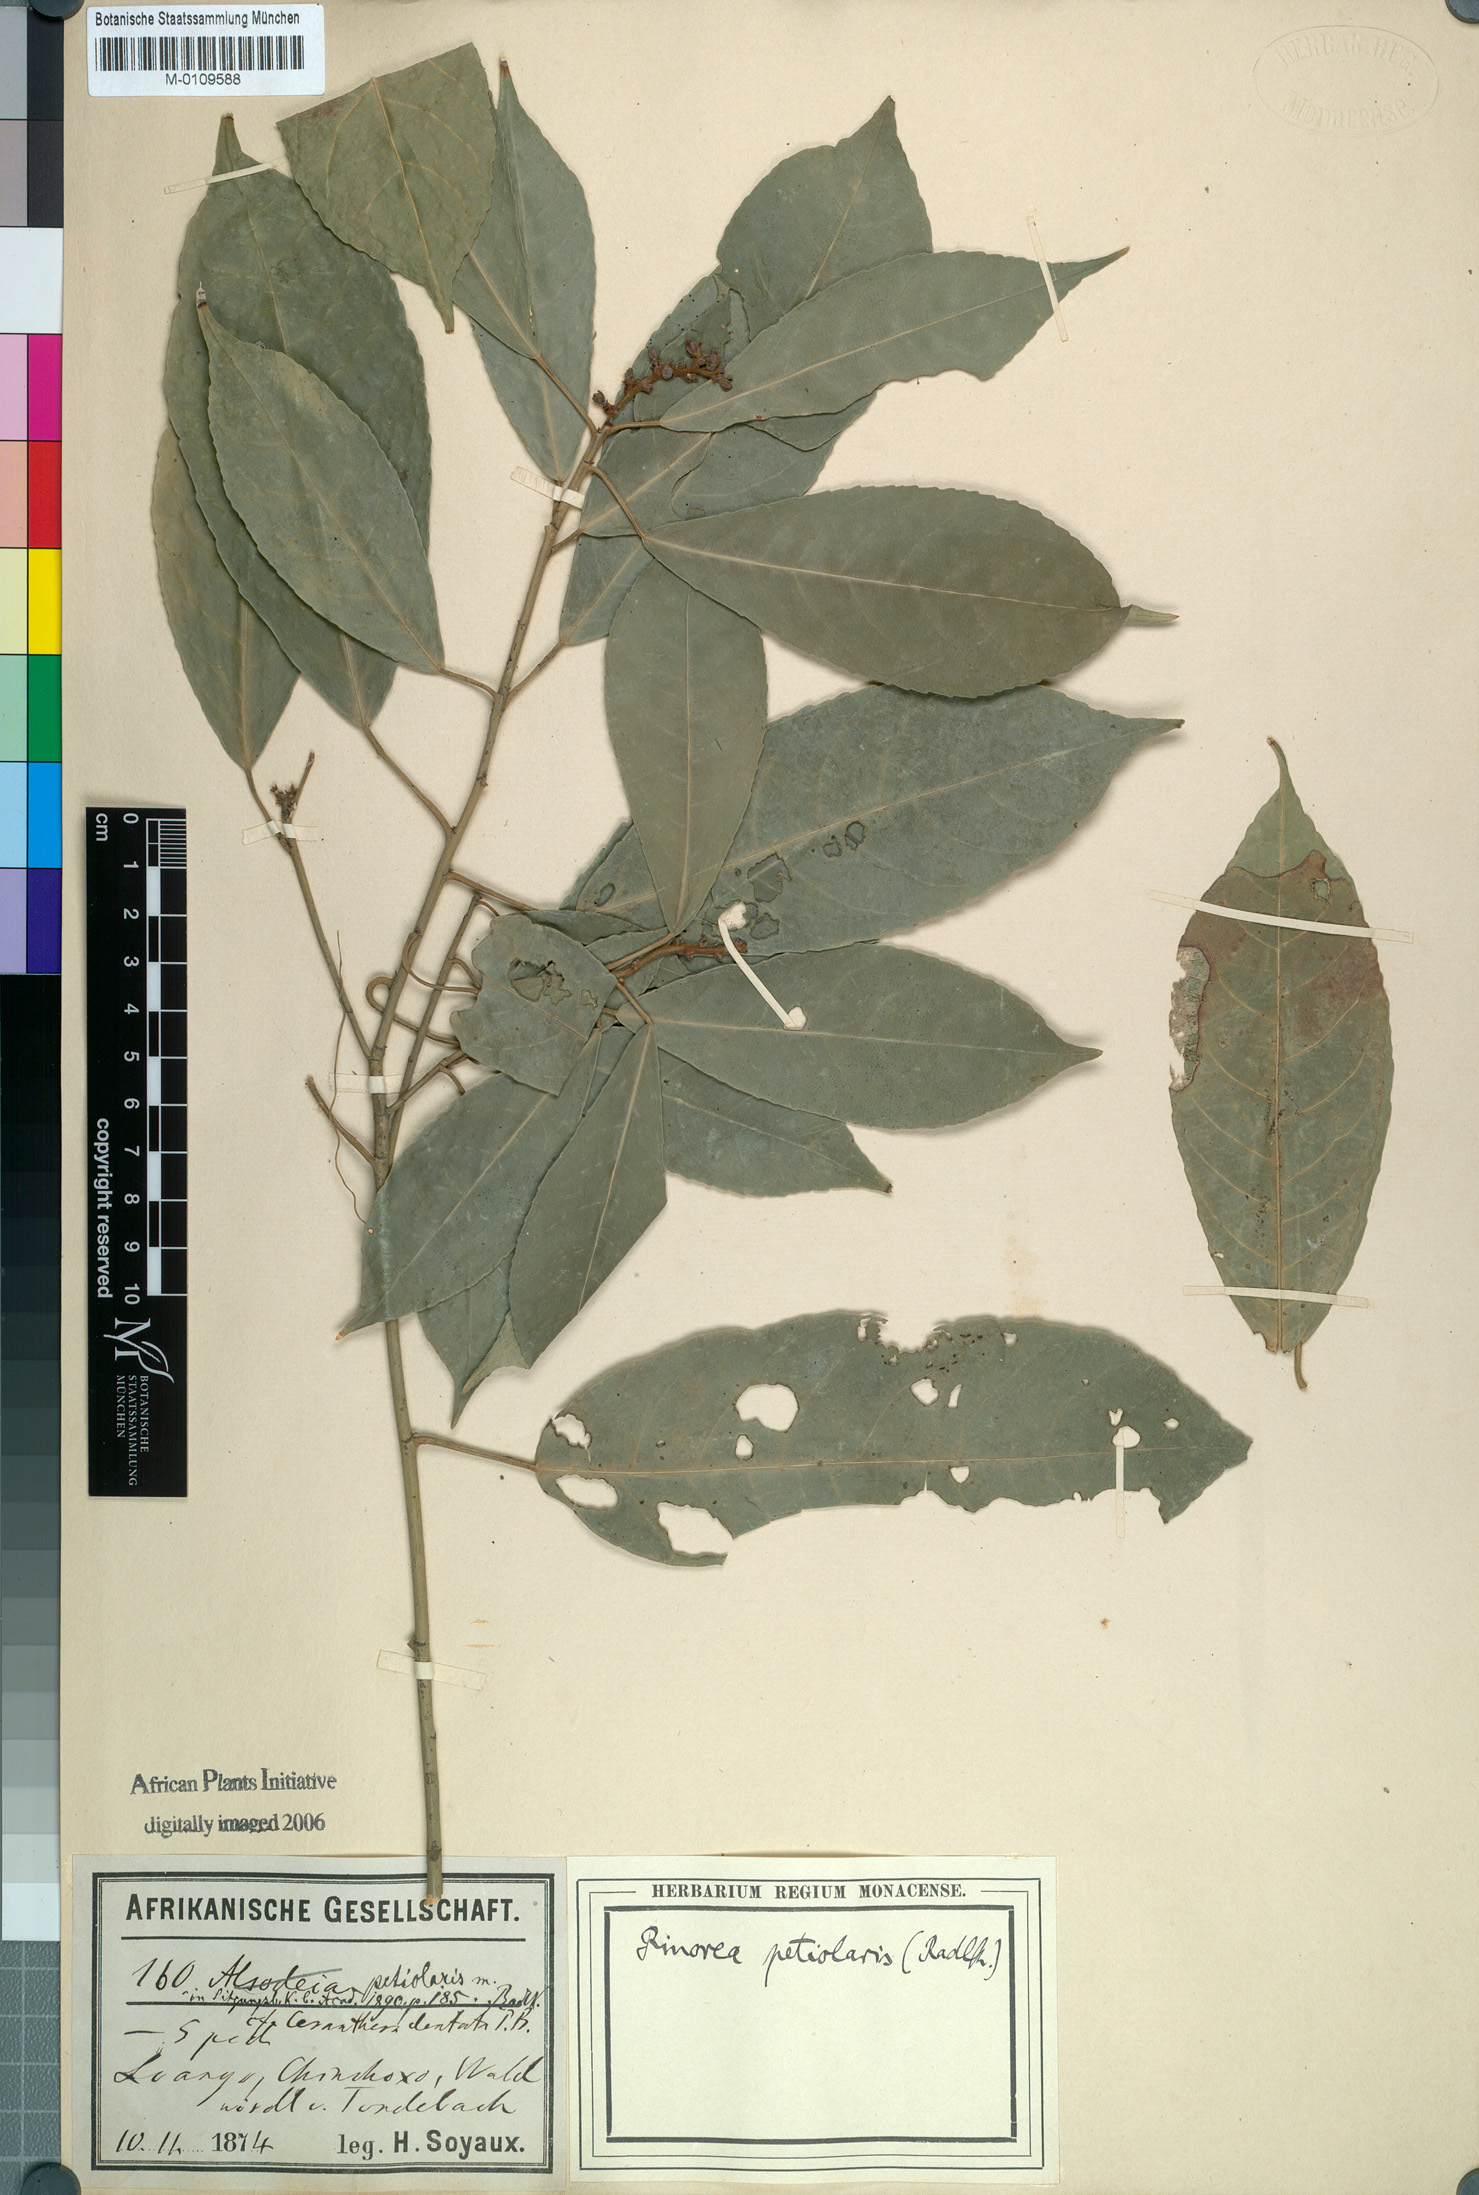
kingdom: Plantae
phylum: Tracheophyta
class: Magnoliopsida
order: Malpighiales
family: Violaceae
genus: Rinorea
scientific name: Rinorea
